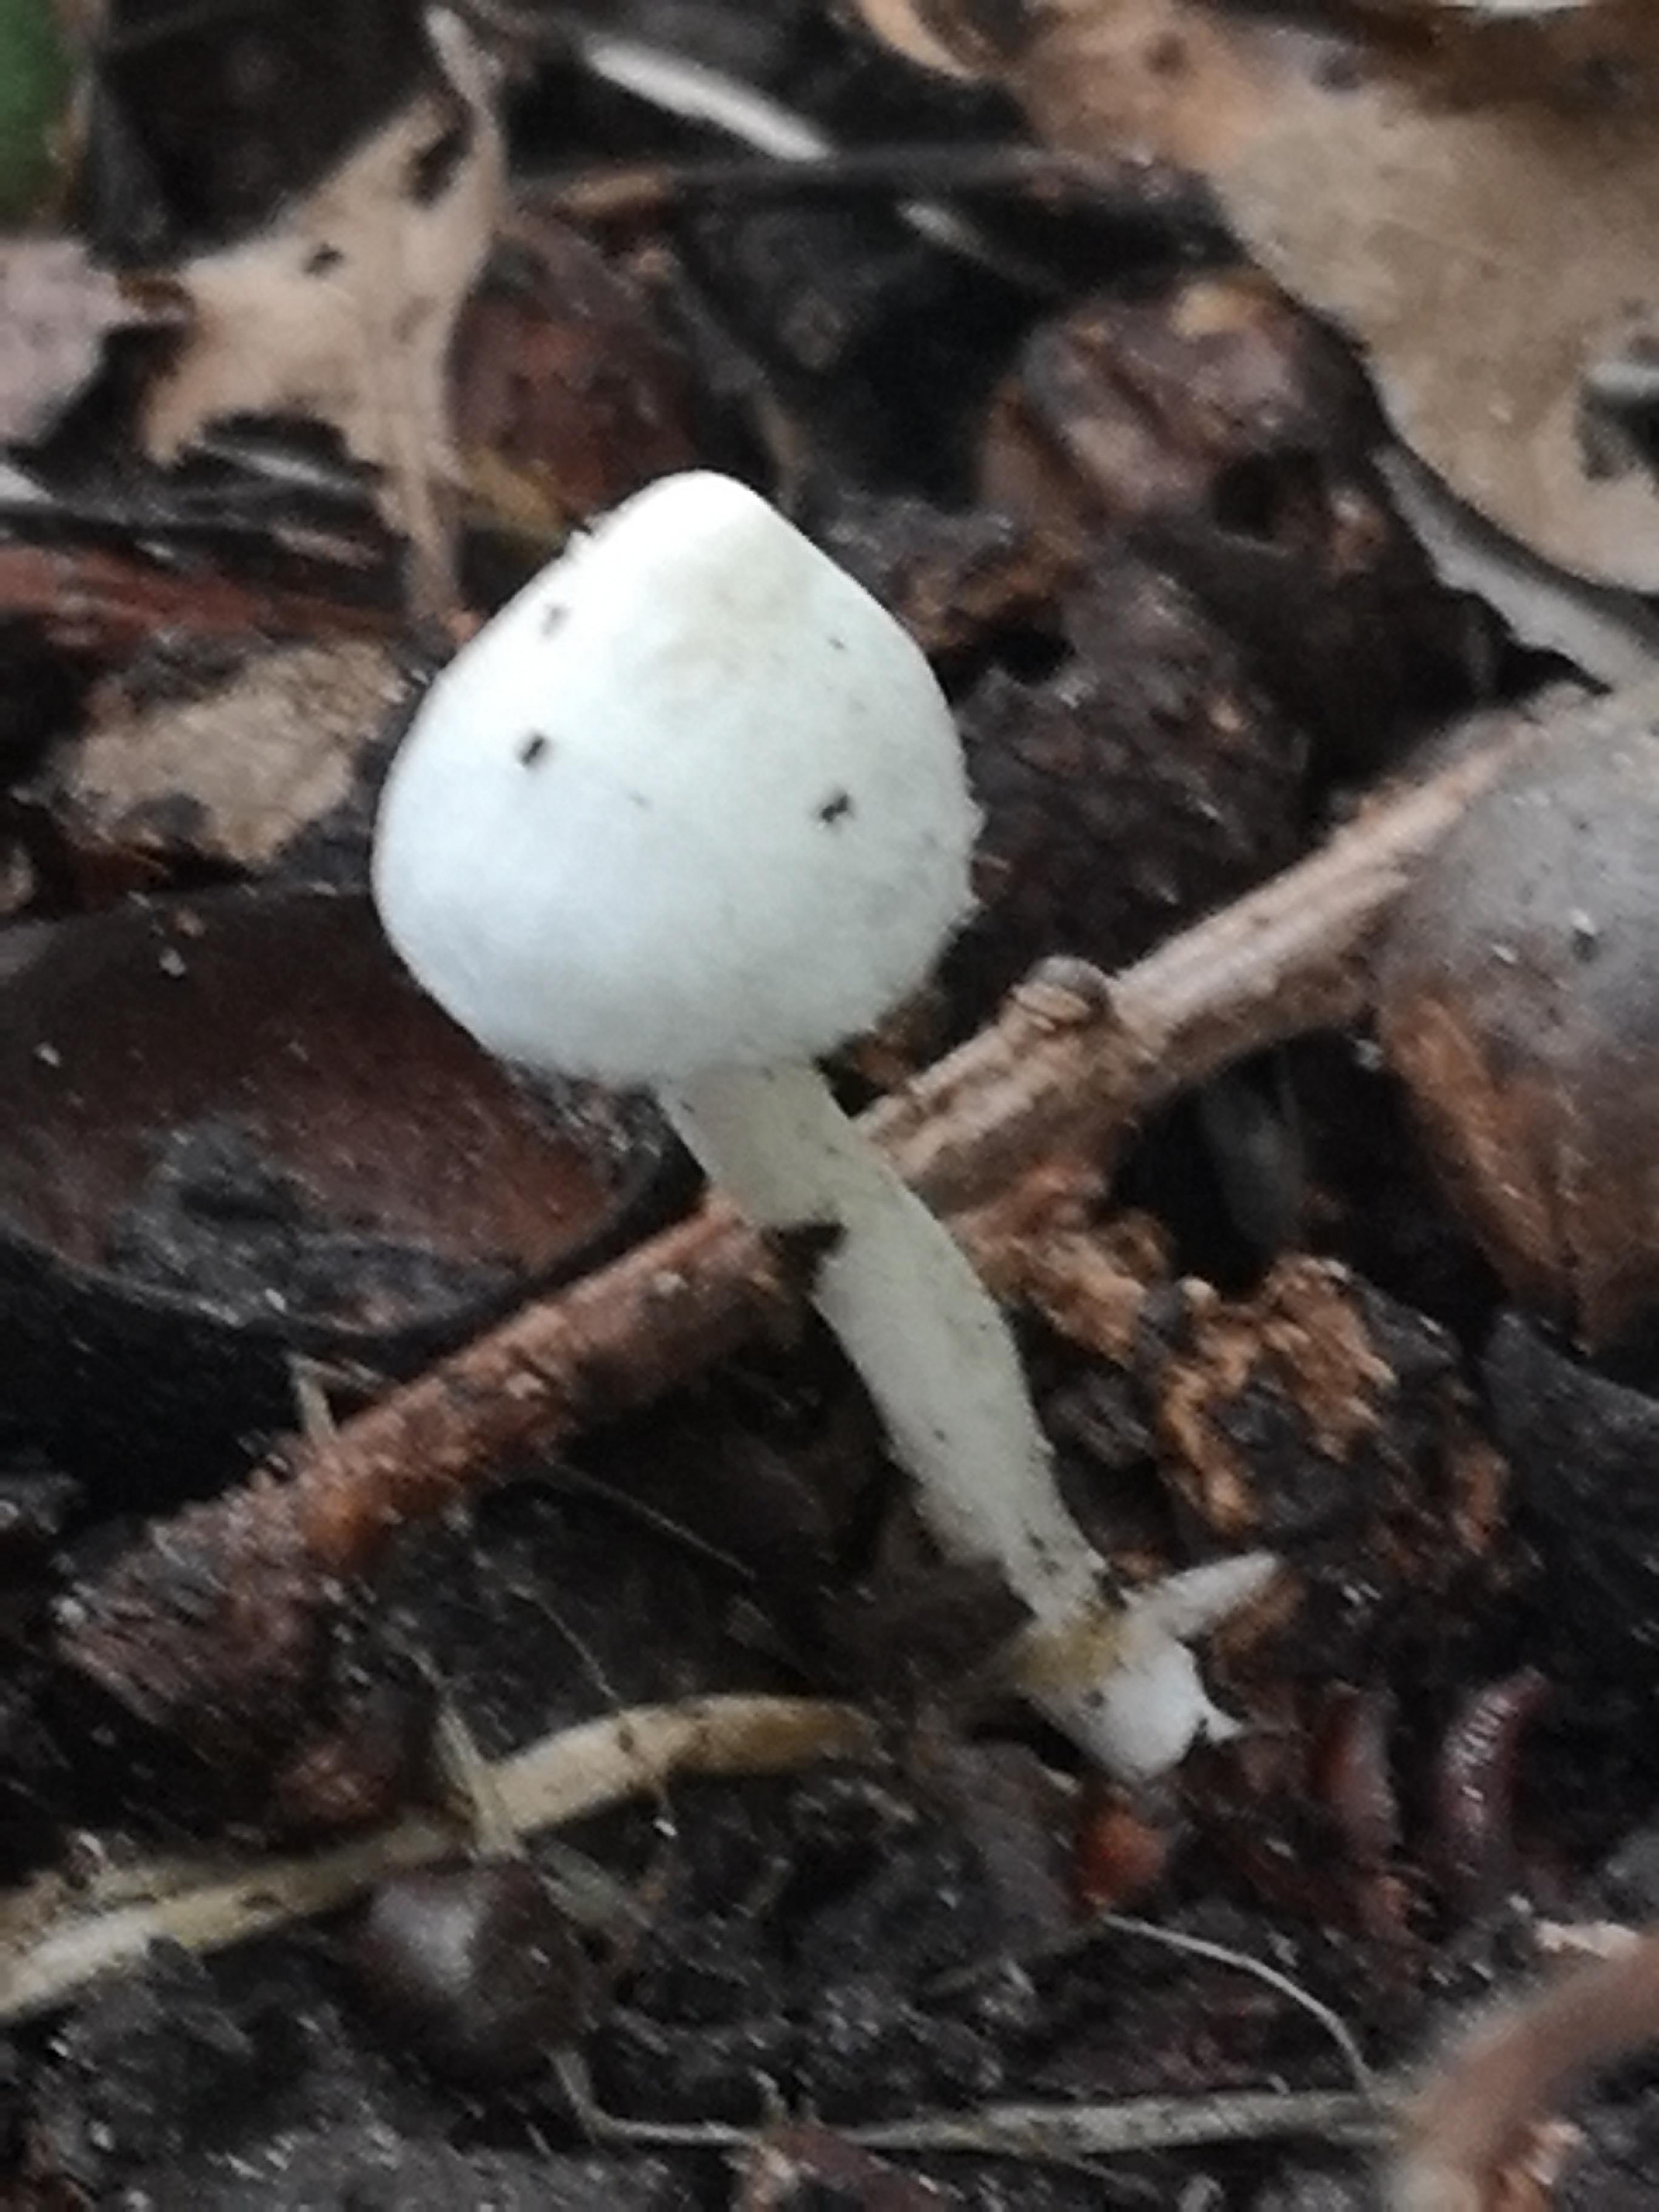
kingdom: Fungi
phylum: Basidiomycota
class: Agaricomycetes
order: Agaricales
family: Inocybaceae
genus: Inocybe
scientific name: Inocybe
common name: almindelig trævlhat
